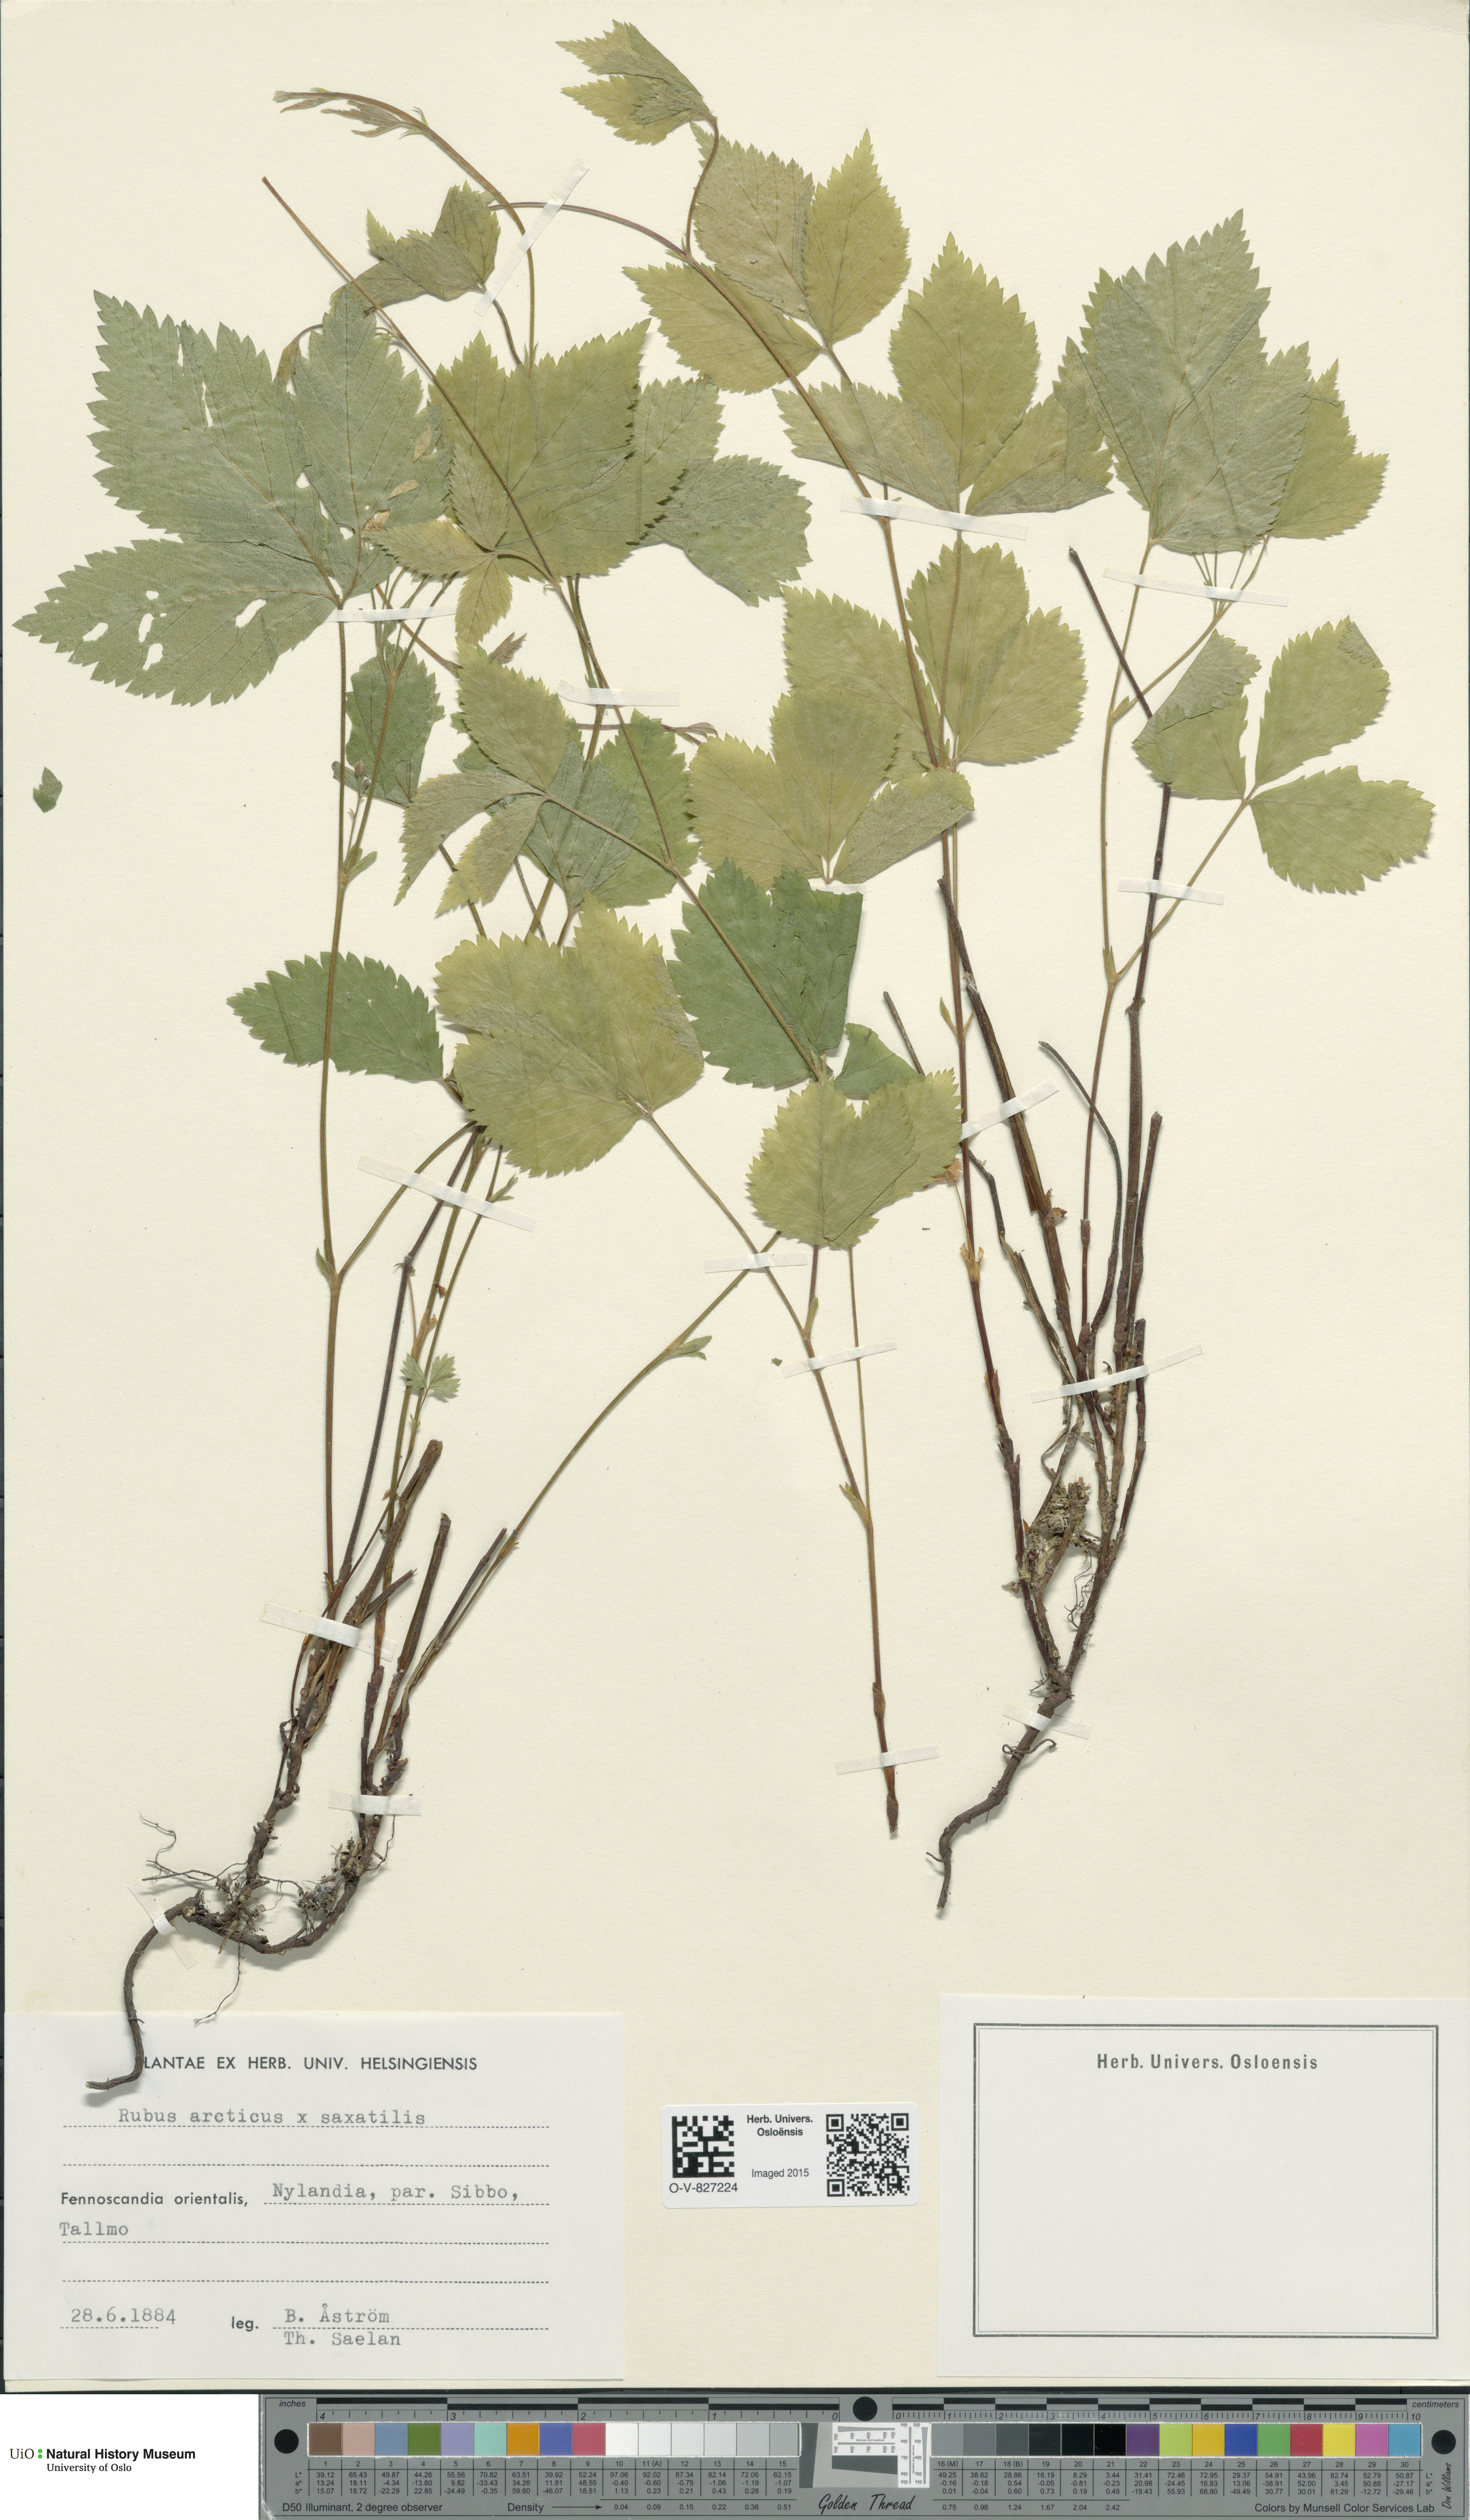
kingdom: Plantae
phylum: Tracheophyta
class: Magnoliopsida
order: Rosales
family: Rosaceae
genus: Rubus
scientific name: Rubus
